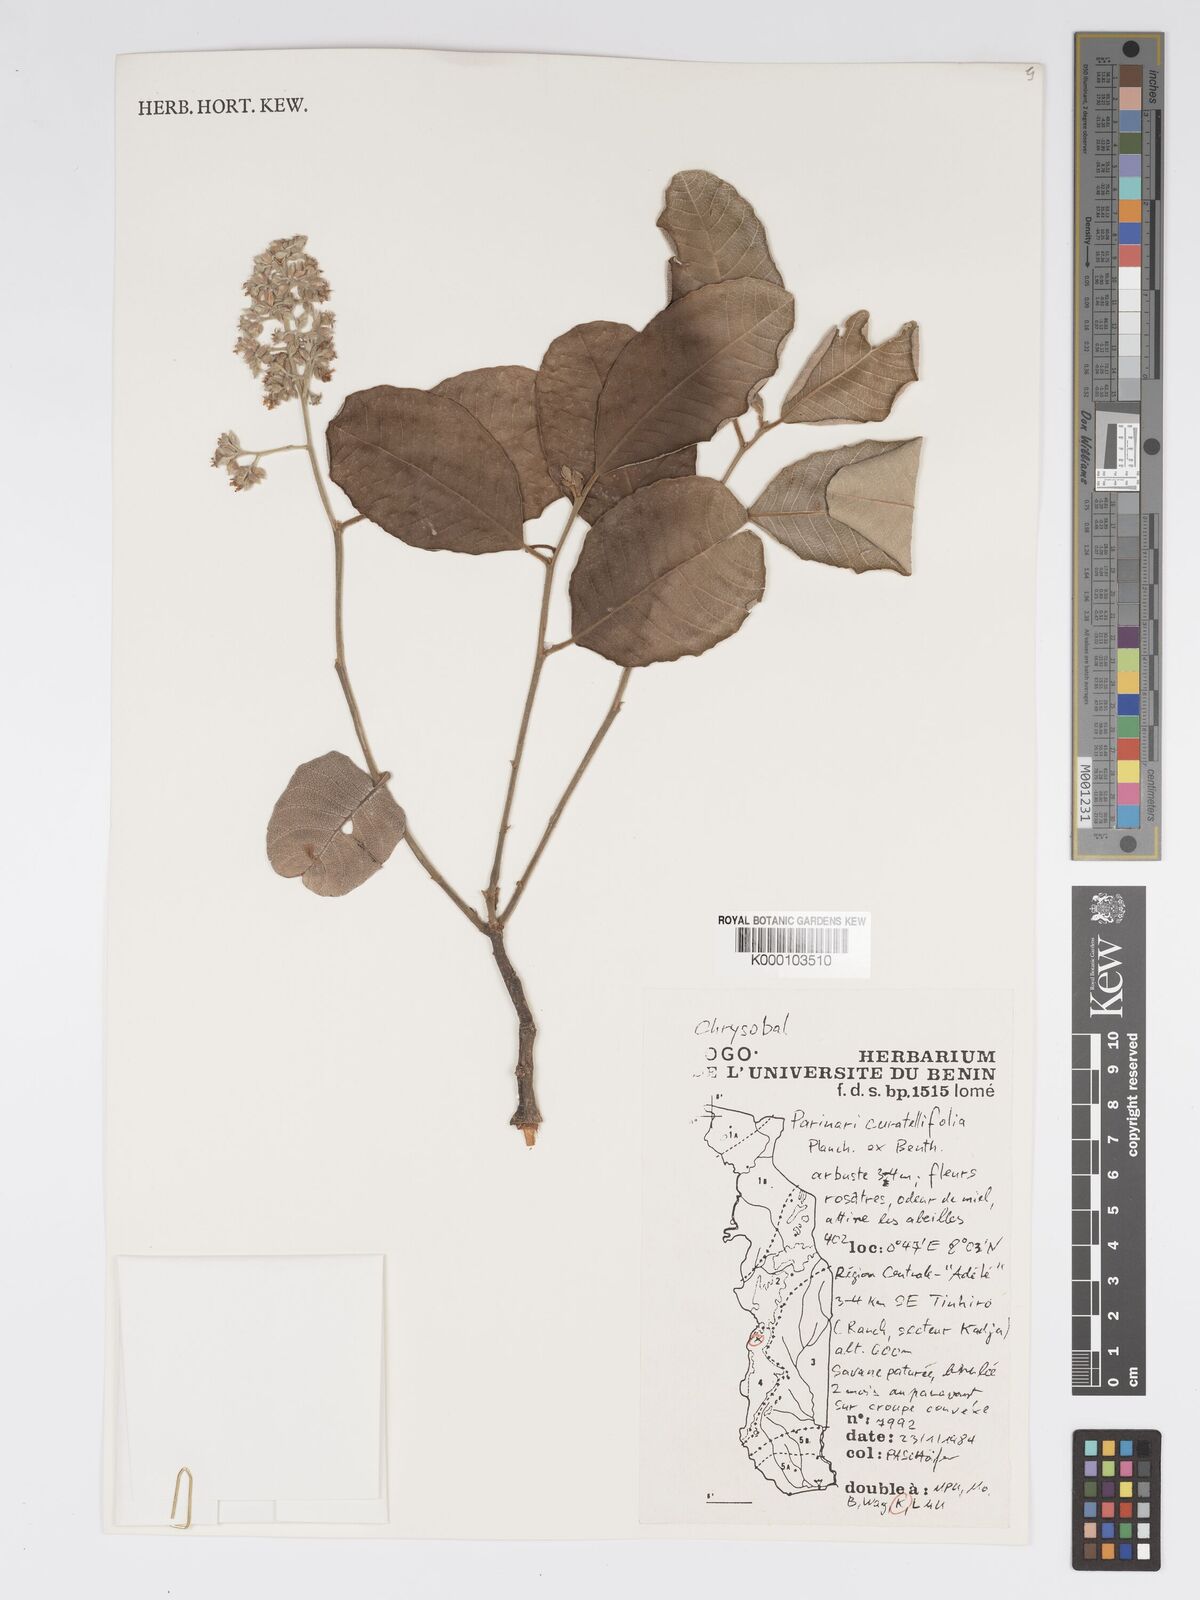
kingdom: Plantae
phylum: Tracheophyta
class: Magnoliopsida
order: Malpighiales
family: Chrysobalanaceae
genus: Parinari
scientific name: Parinari curatellifolia
